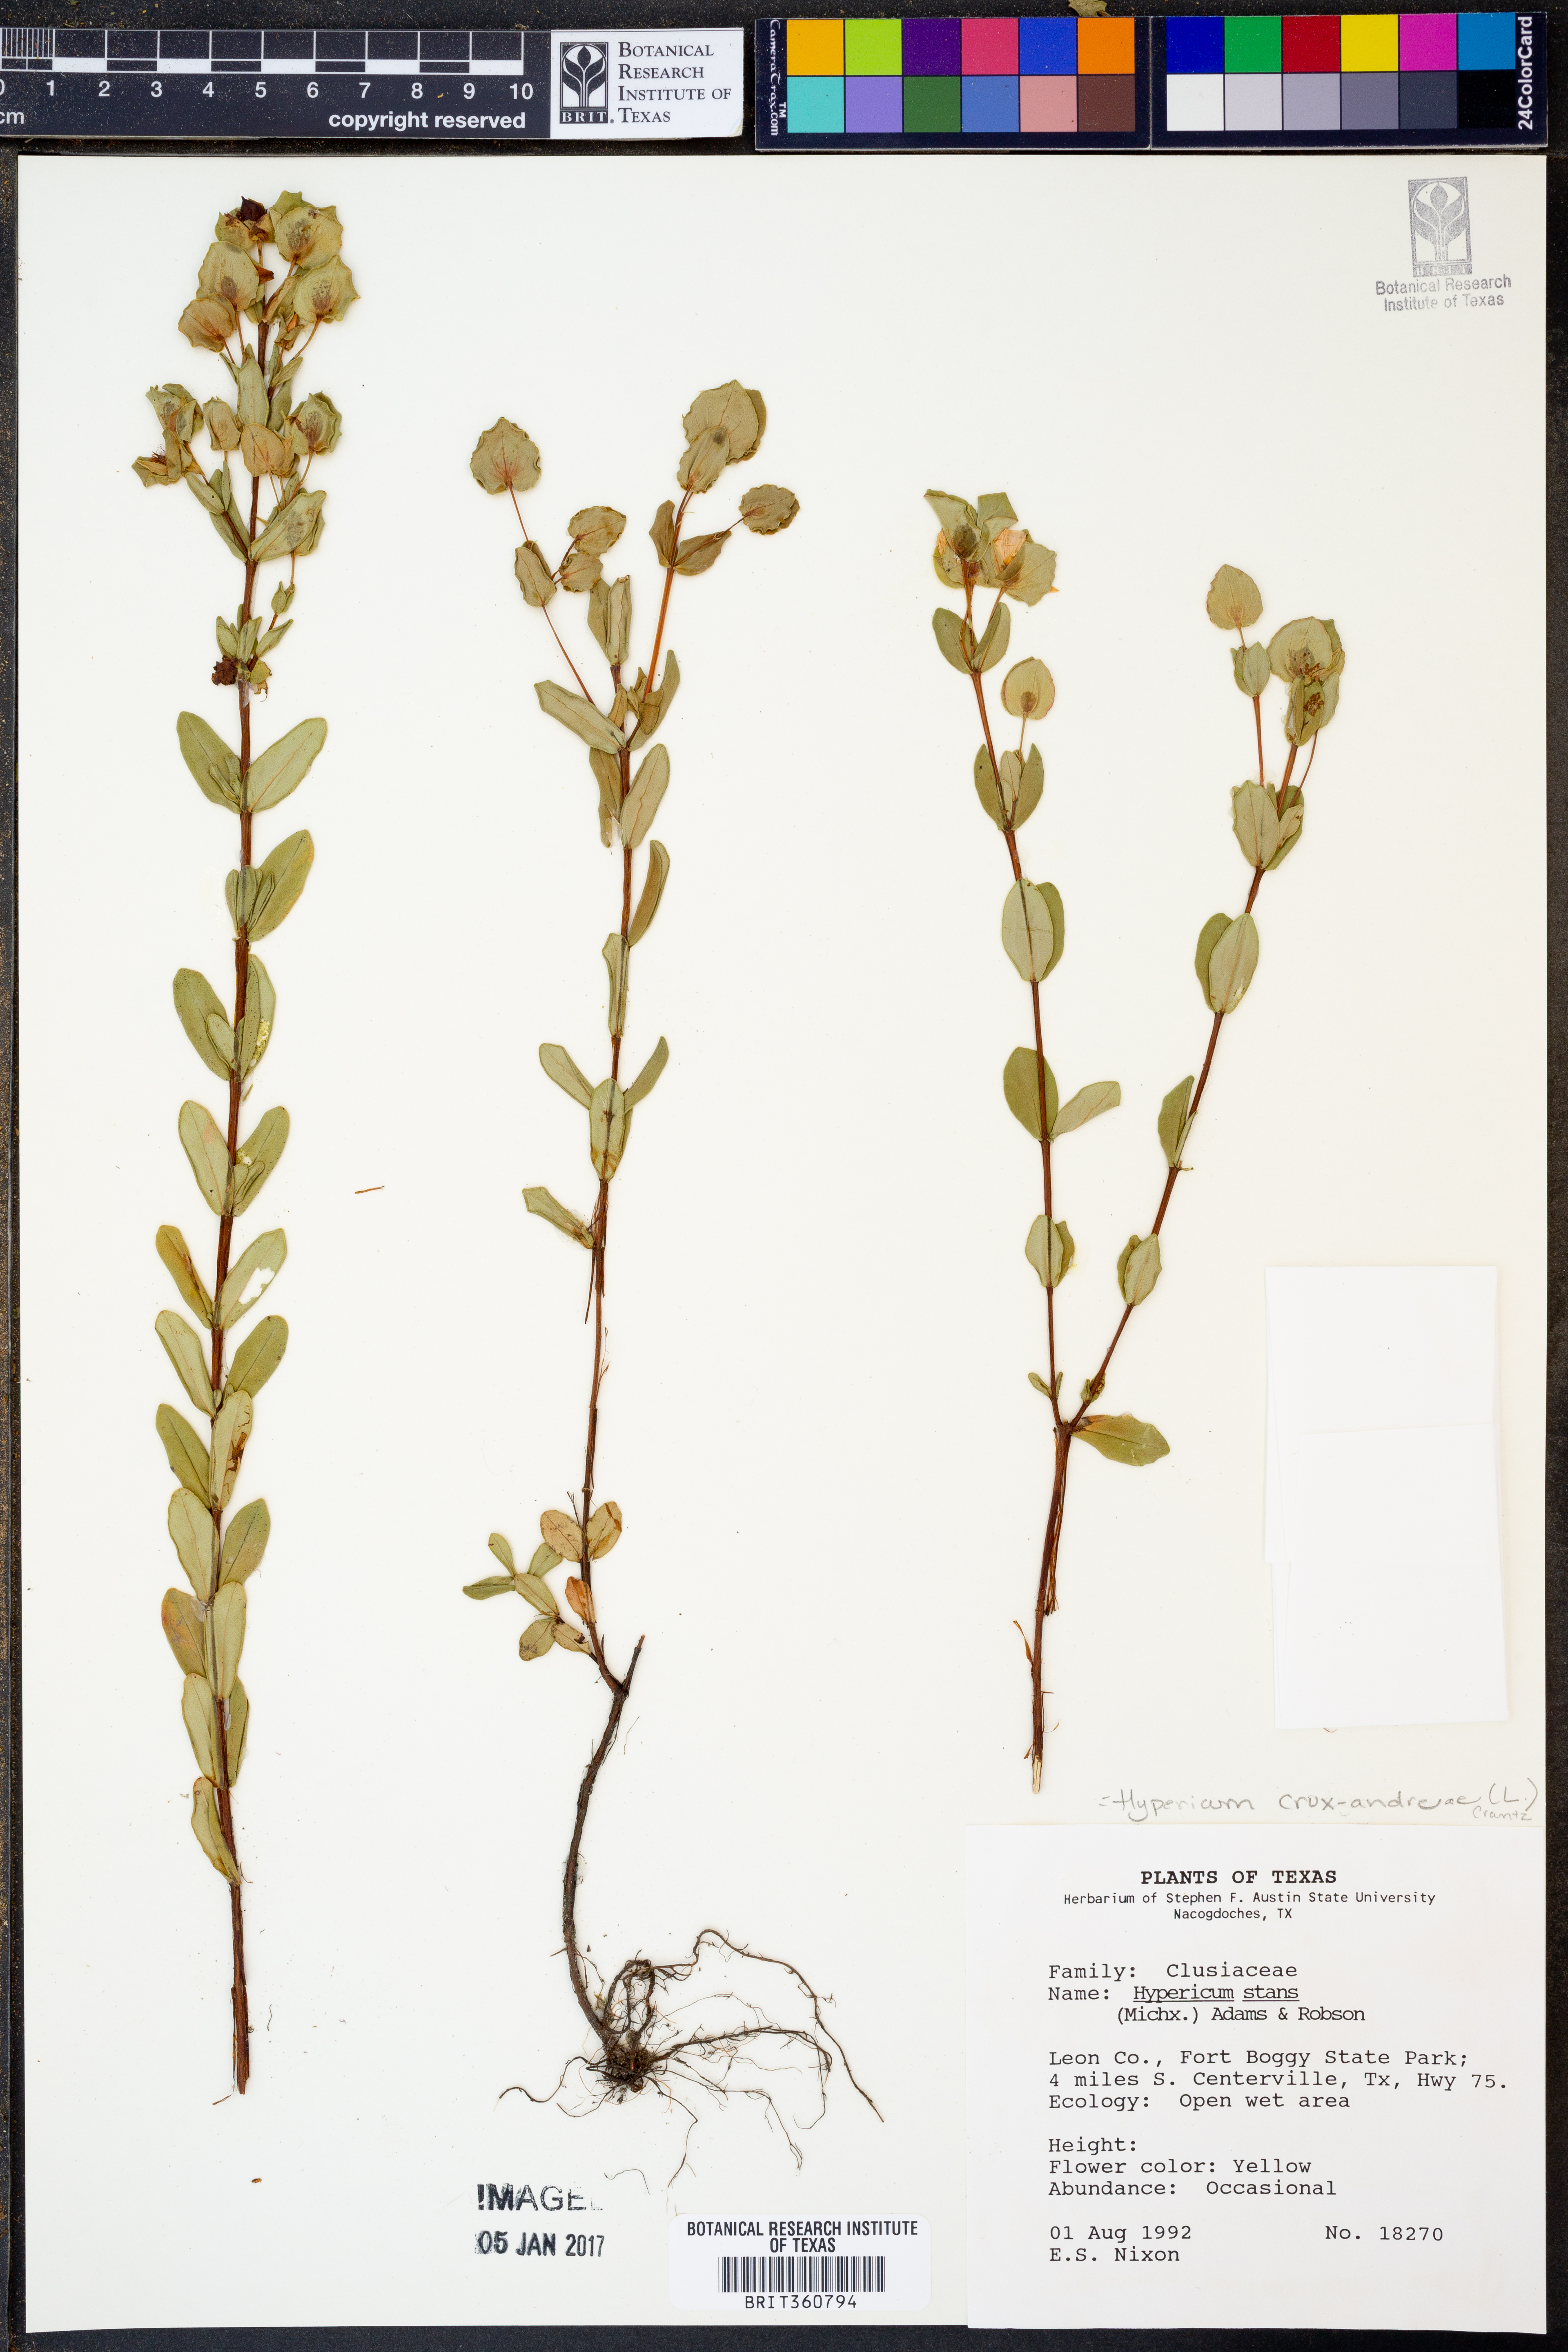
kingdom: Plantae
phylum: Tracheophyta
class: Magnoliopsida
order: Malpighiales
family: Hypericaceae
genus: Hypericum
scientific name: Hypericum crux-andreae
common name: St.-peter's-wort
